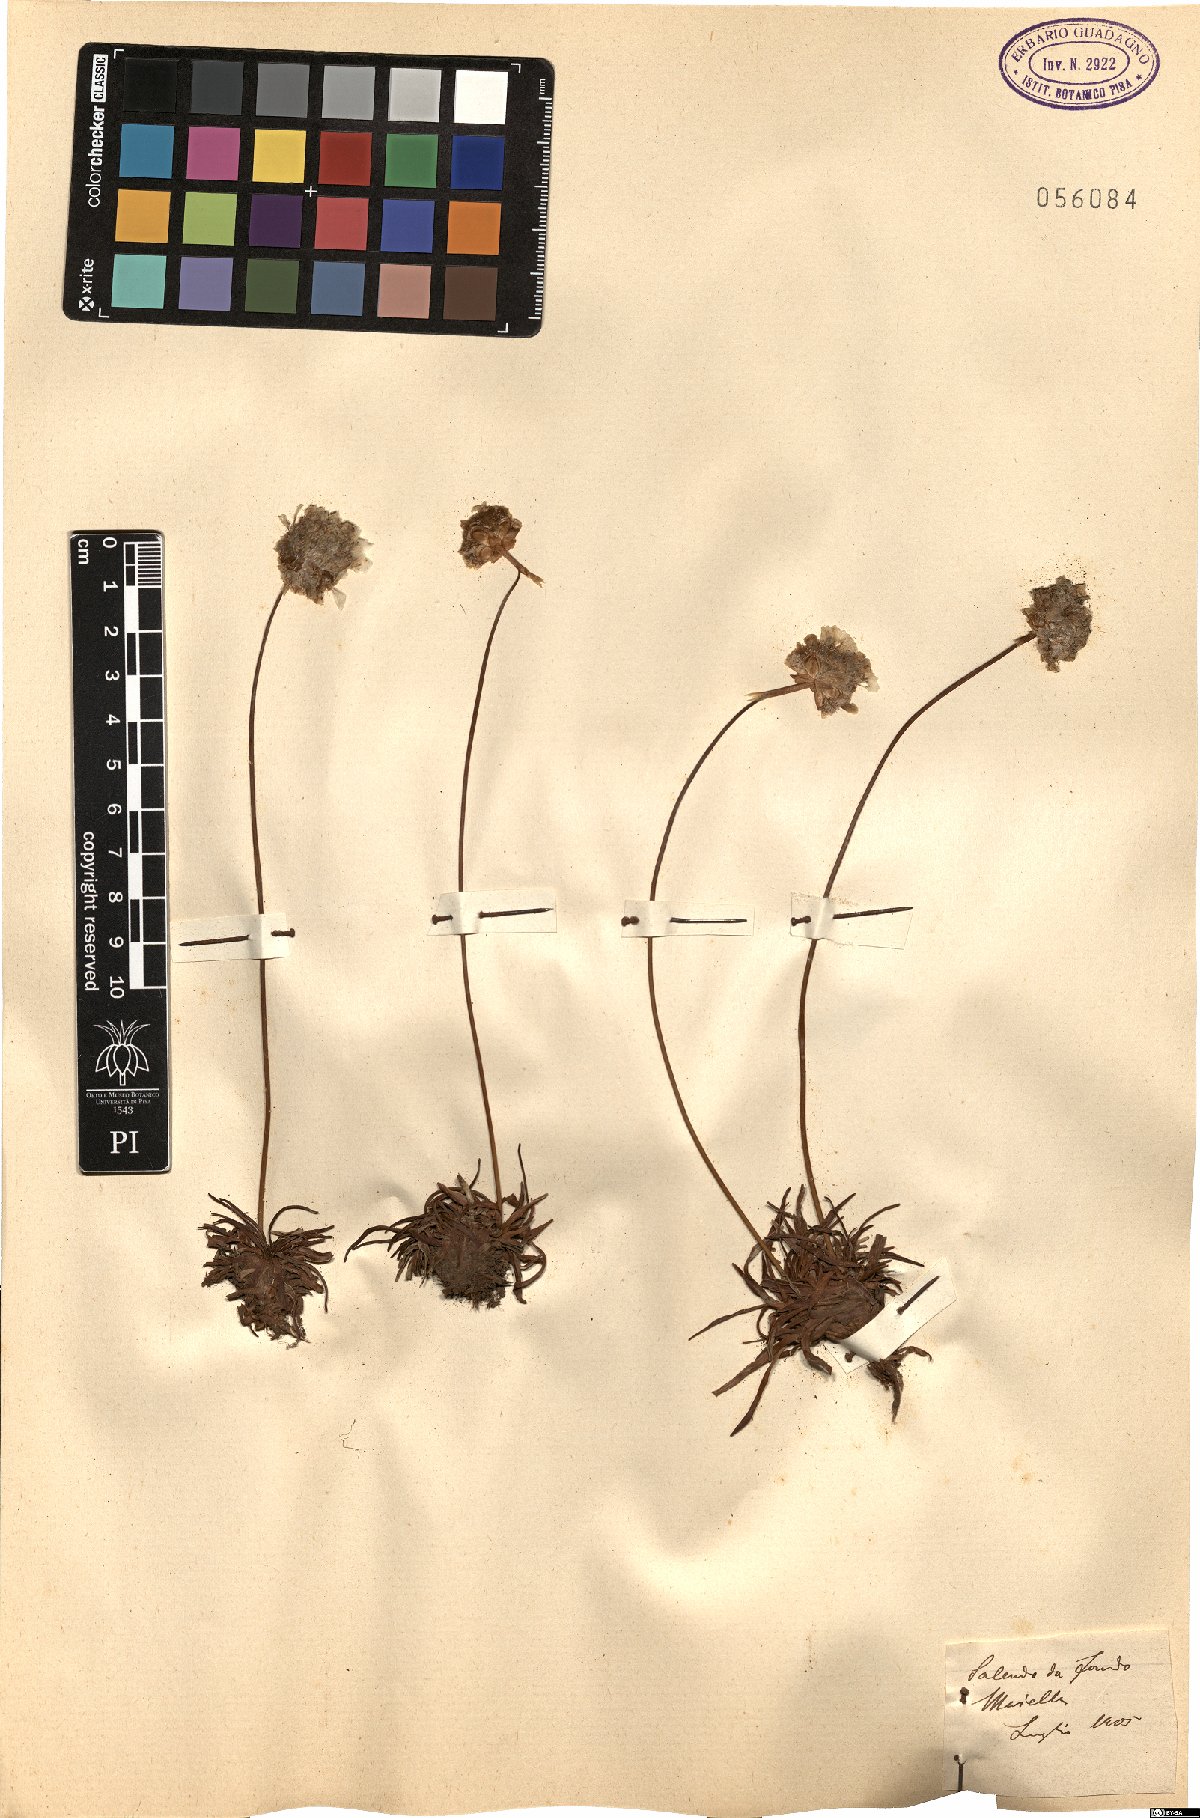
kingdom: Plantae
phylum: Tracheophyta
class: Magnoliopsida
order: Caryophyllales
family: Plumbaginaceae
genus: Armeria
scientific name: Armeria
